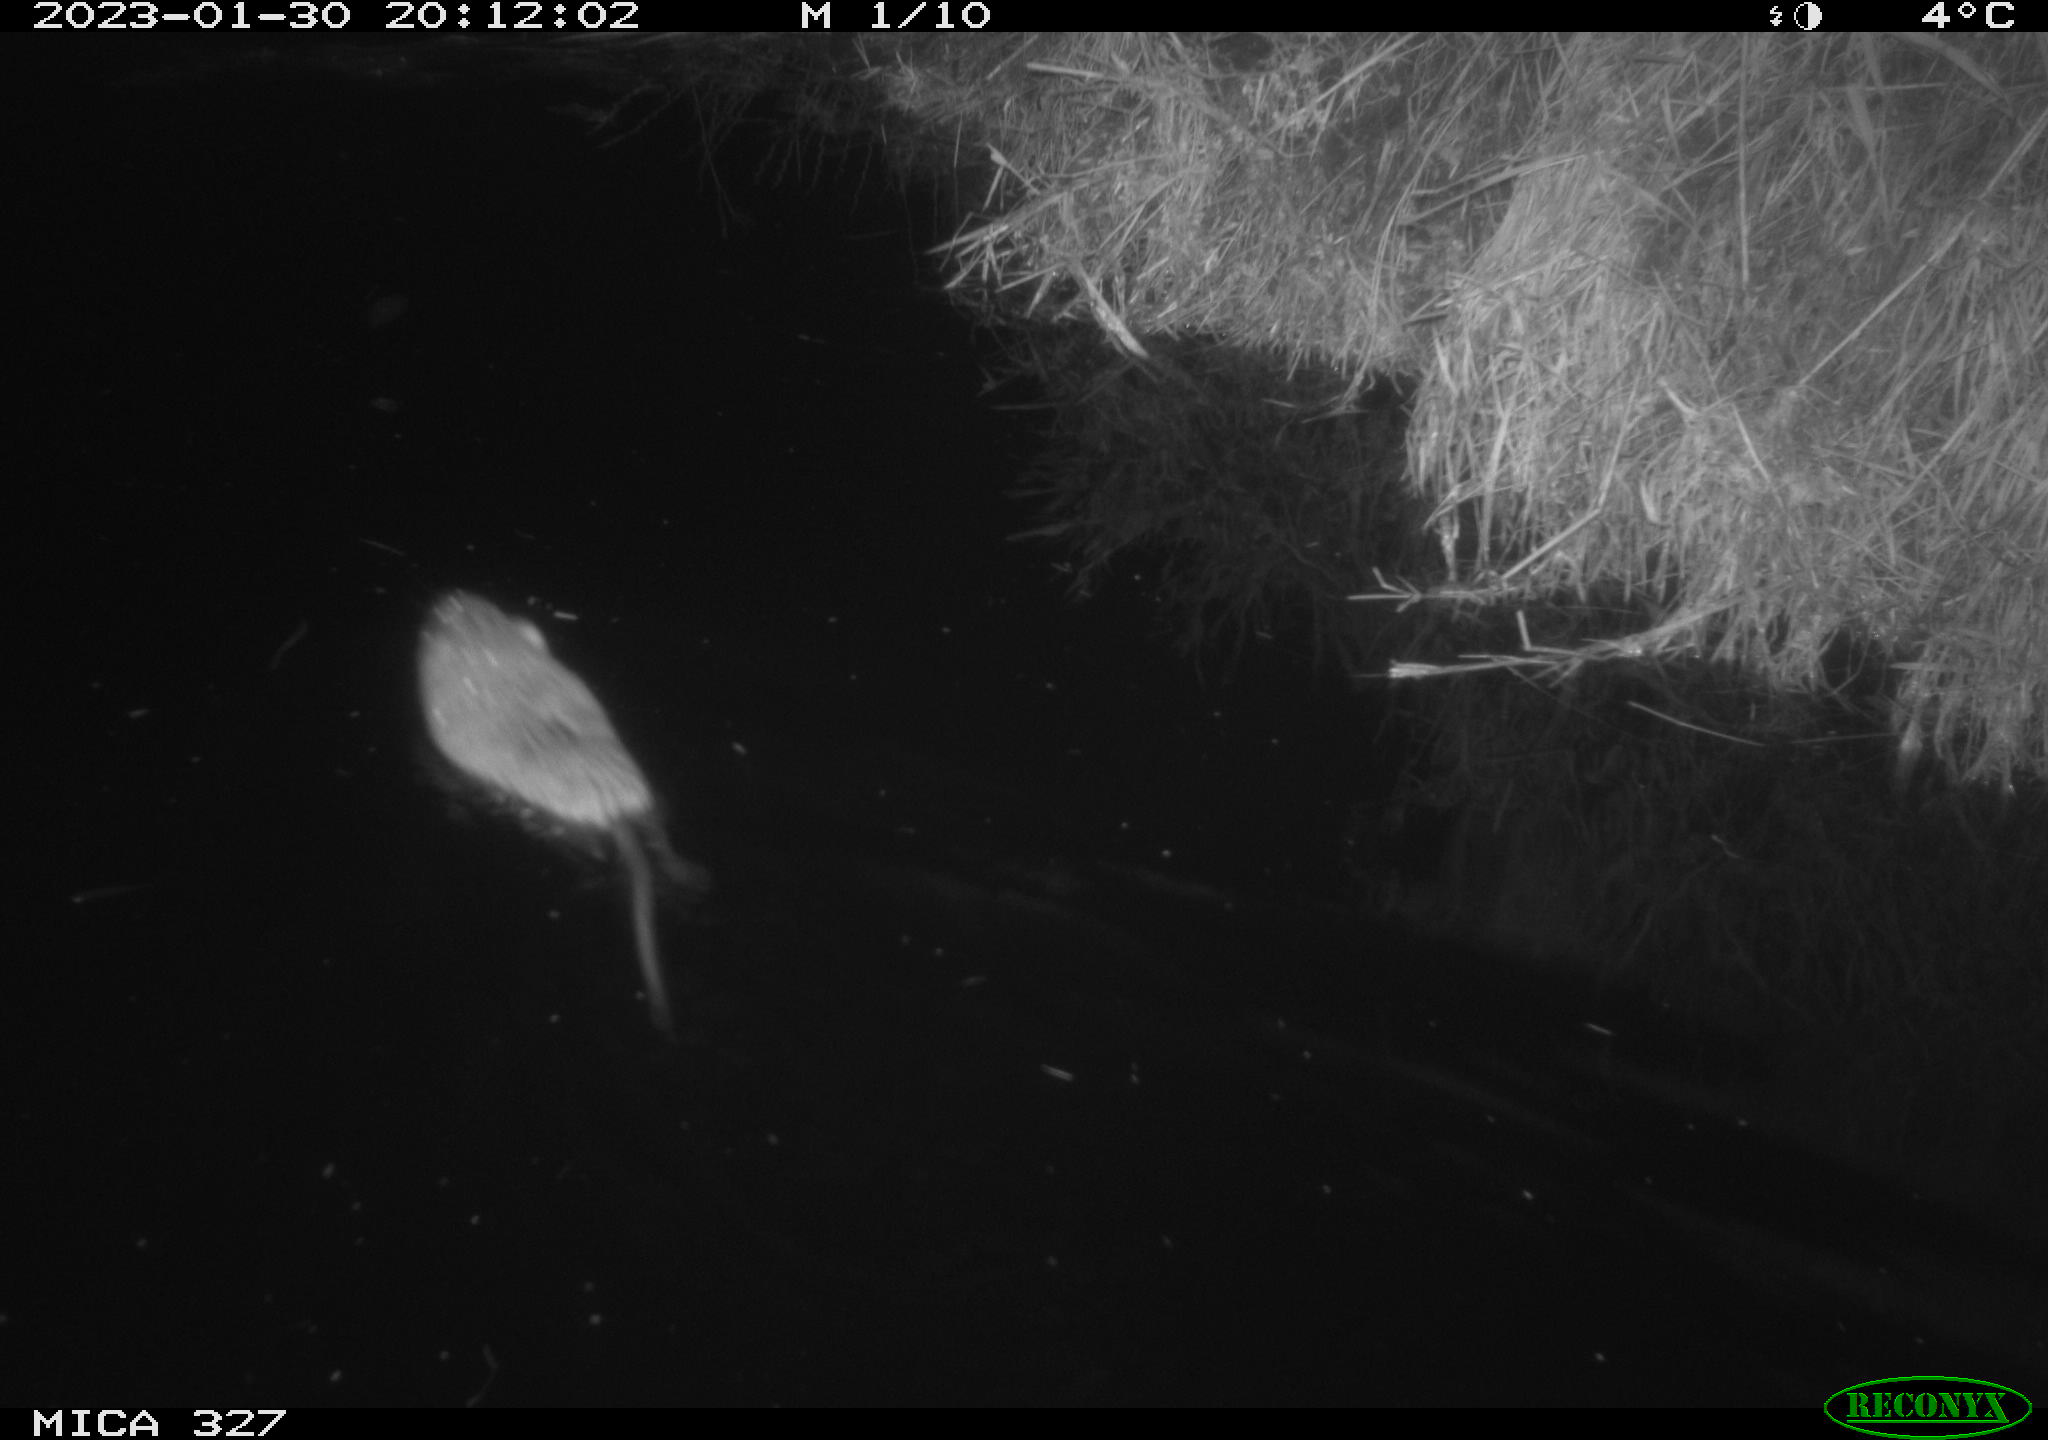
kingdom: Animalia
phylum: Chordata
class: Mammalia
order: Rodentia
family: Cricetidae
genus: Ondatra
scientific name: Ondatra zibethicus
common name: Muskrat
